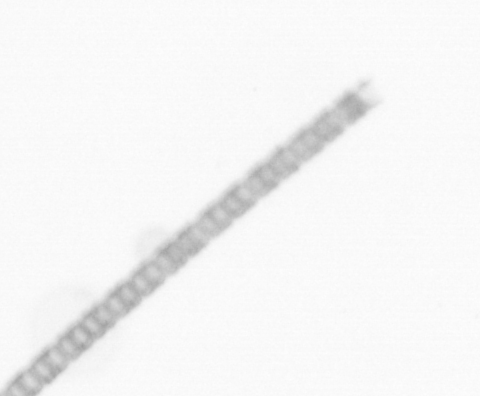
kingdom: Chromista
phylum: Ochrophyta
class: Bacillariophyceae
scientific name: Bacillariophyceae
